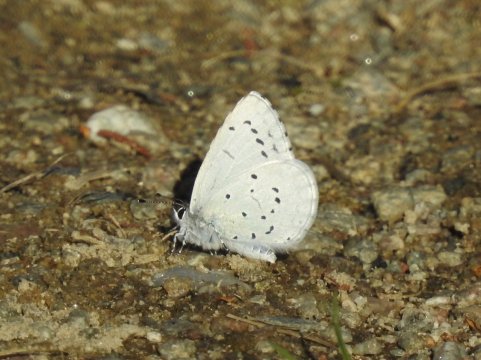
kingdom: Animalia
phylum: Arthropoda
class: Insecta
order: Lepidoptera
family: Lycaenidae
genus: Celastrina
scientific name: Celastrina argiolus
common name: Holly Blue
